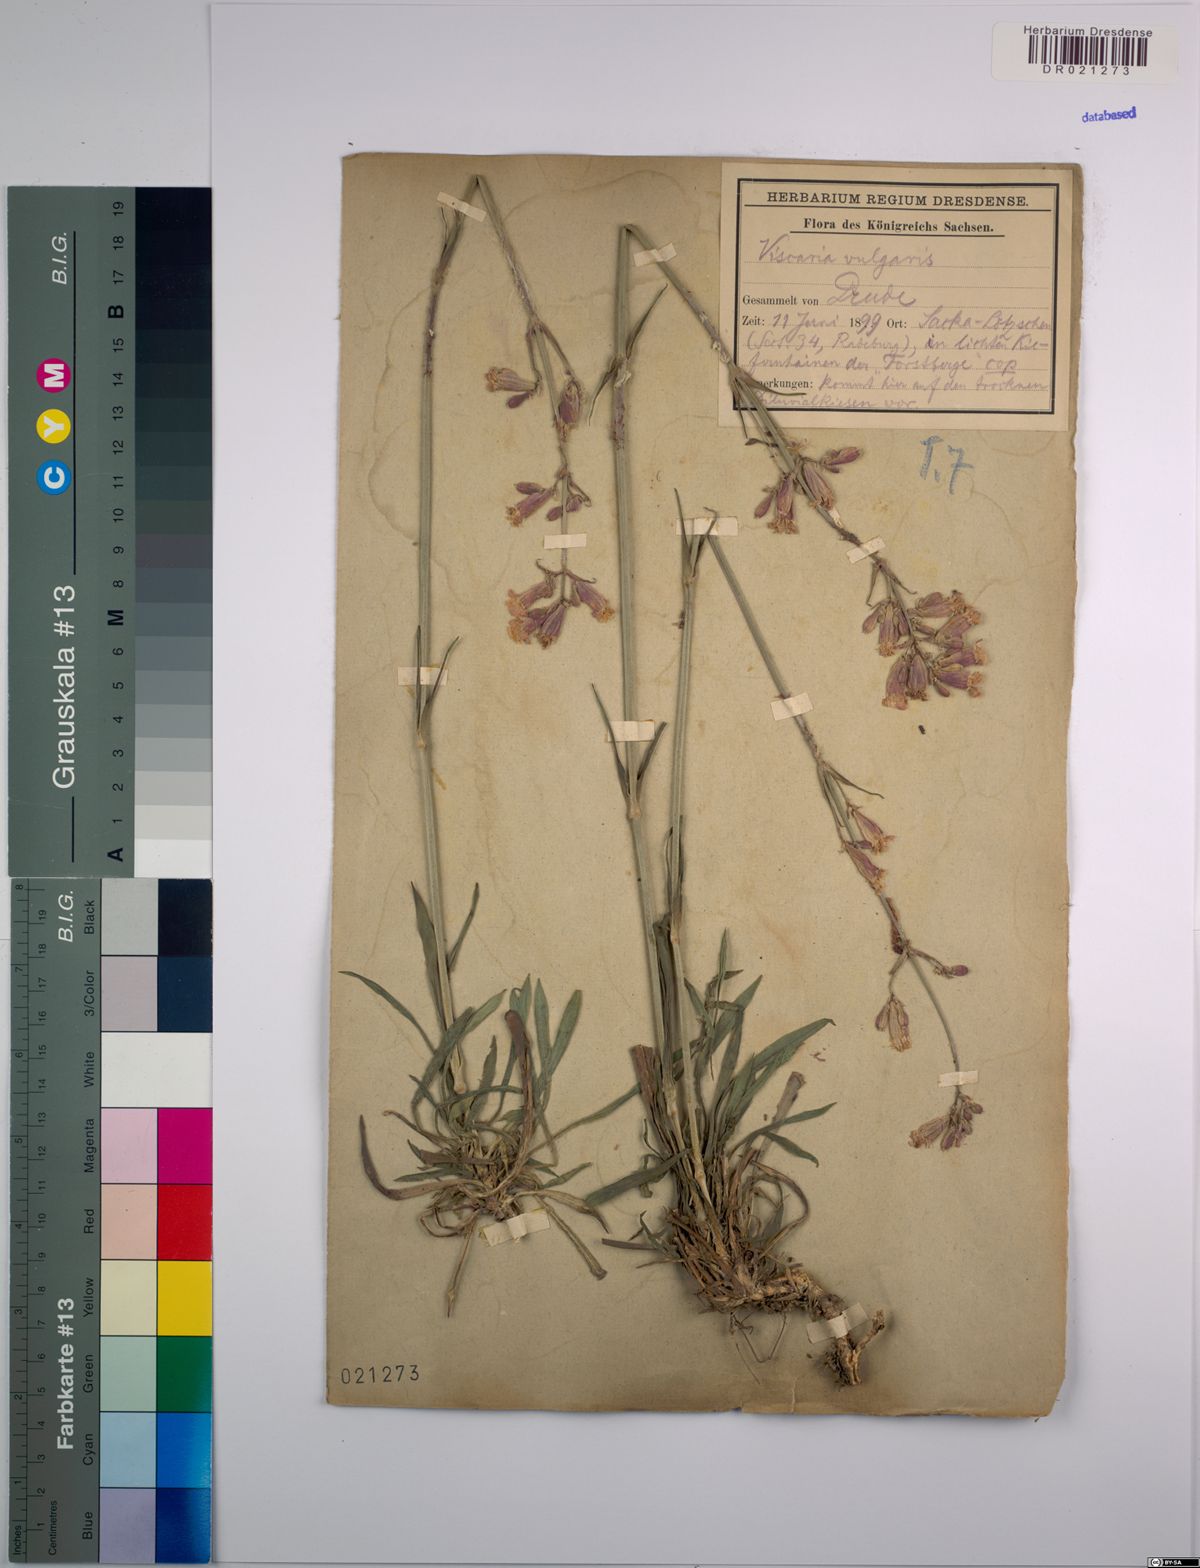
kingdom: Plantae
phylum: Tracheophyta
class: Magnoliopsida
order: Caryophyllales
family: Caryophyllaceae
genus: Viscaria
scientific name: Viscaria vulgaris
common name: Clammy campion
